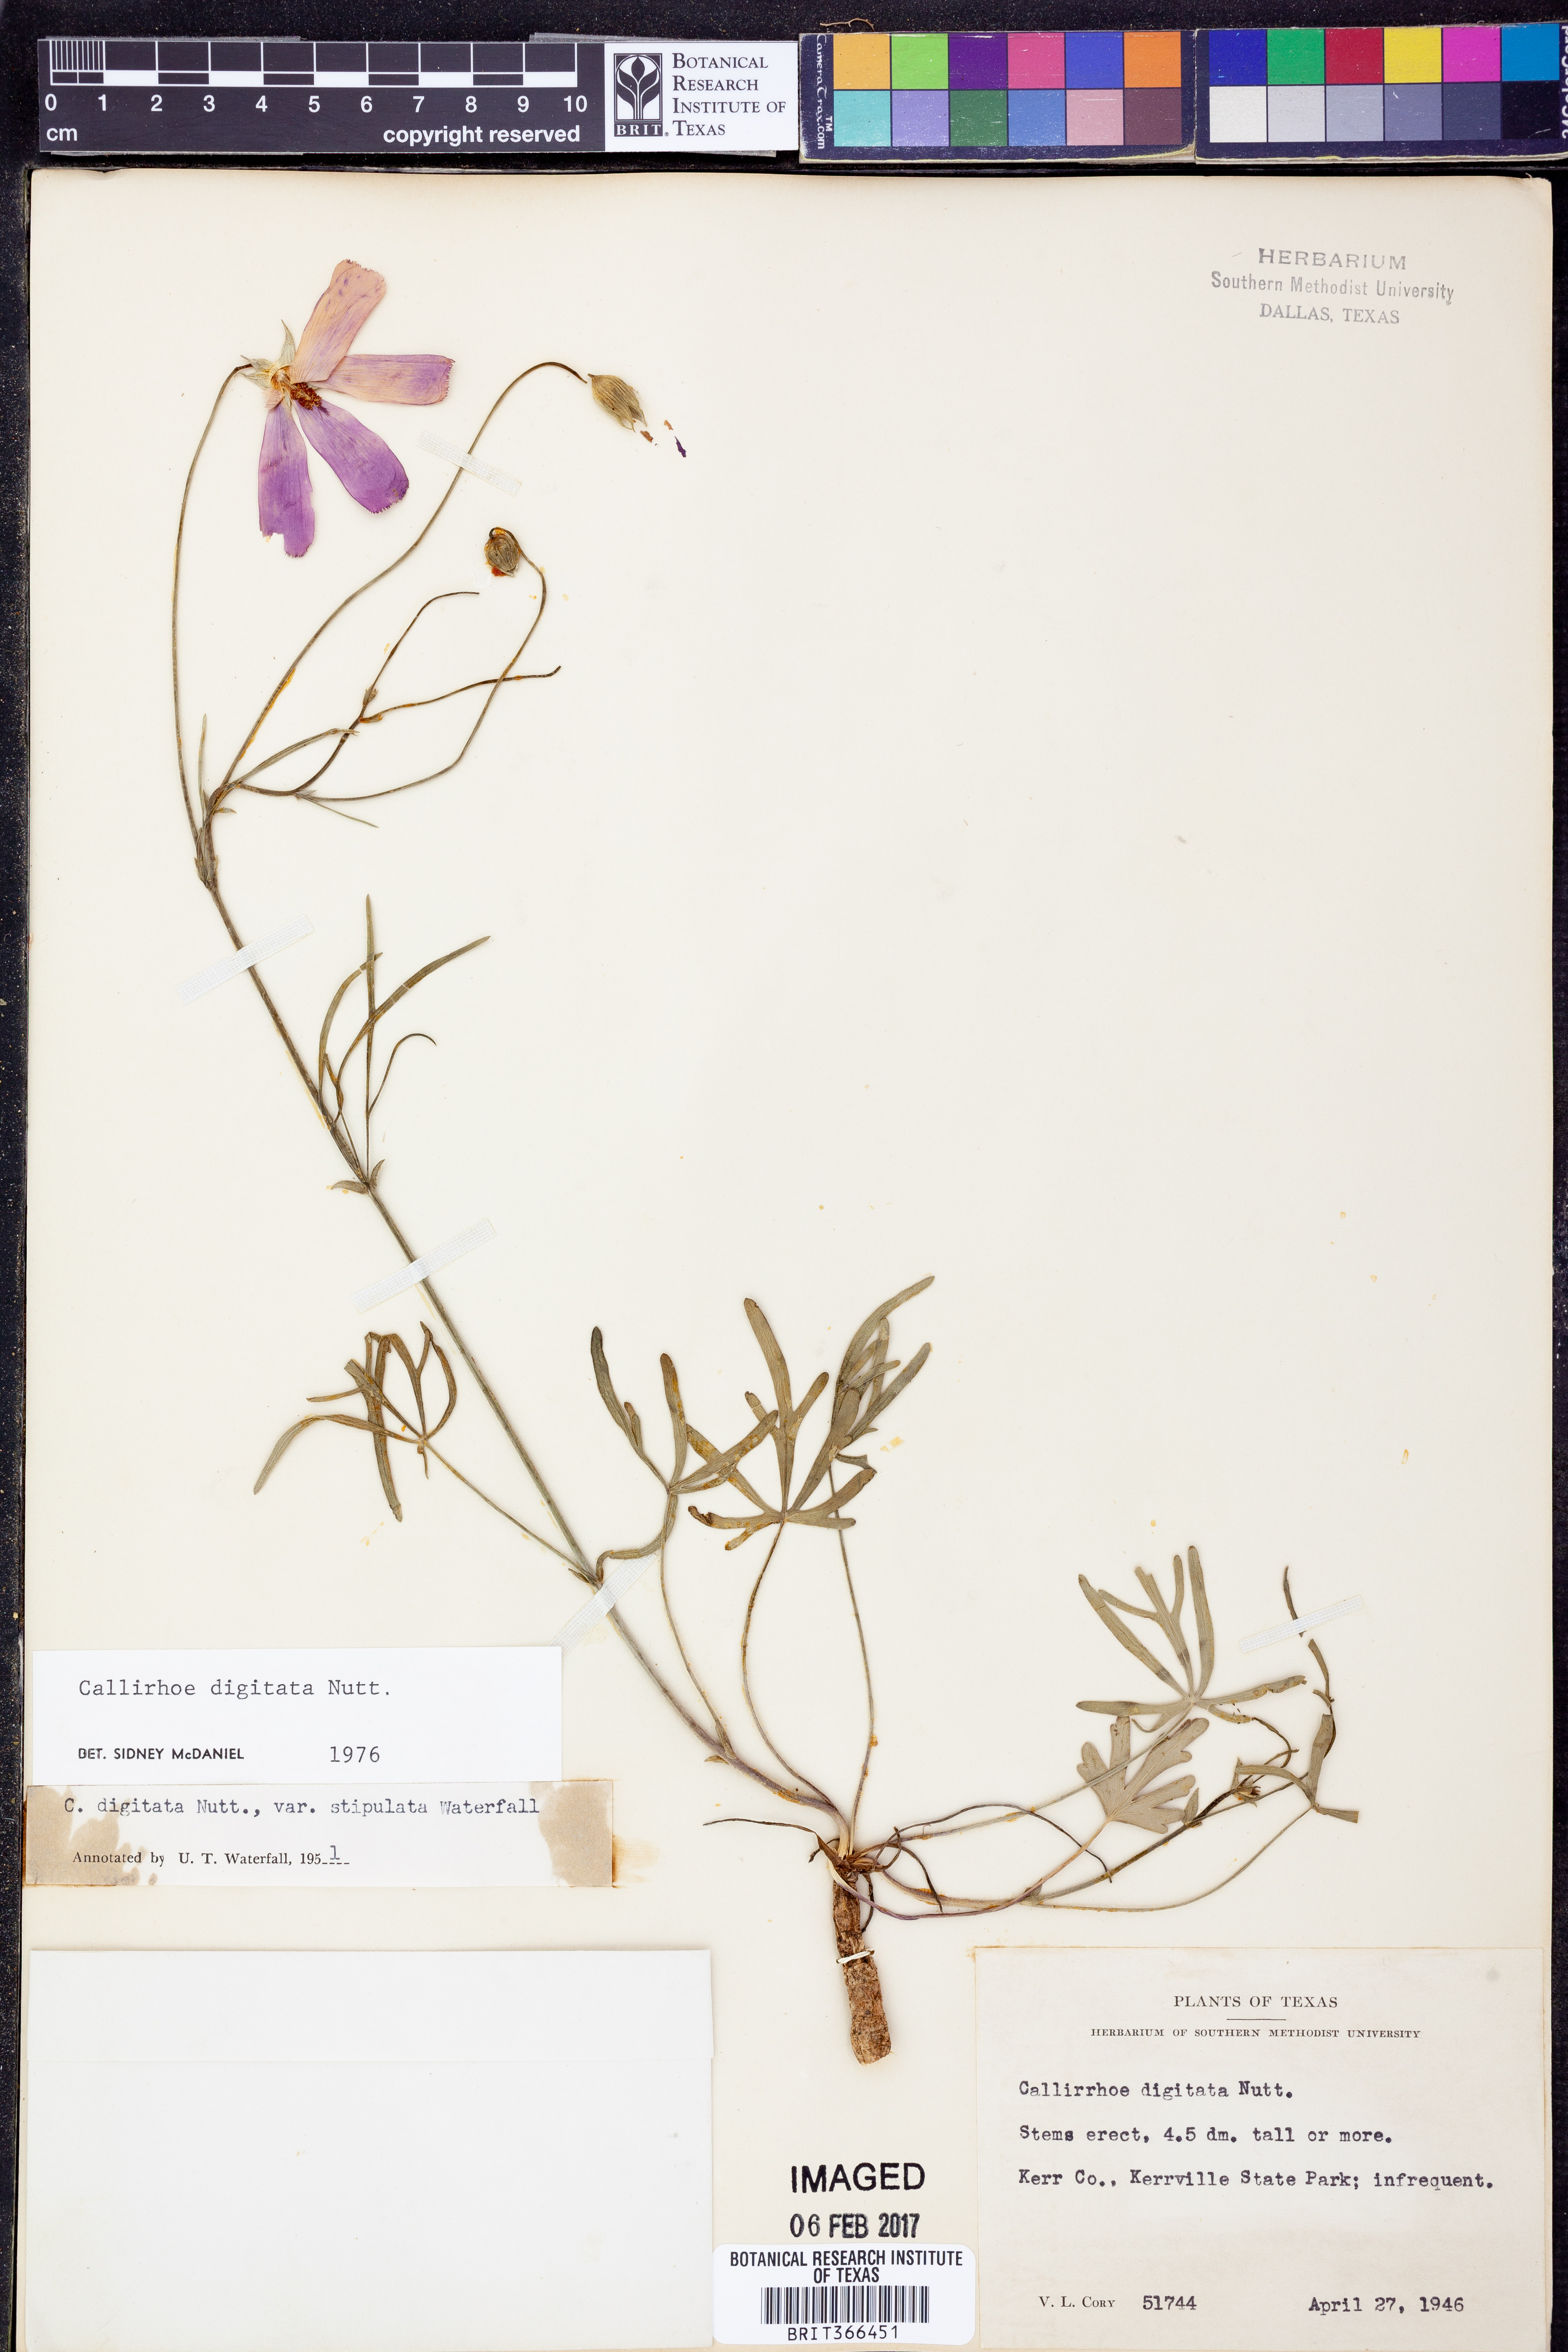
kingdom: Plantae
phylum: Tracheophyta
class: Magnoliopsida
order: Malvales
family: Malvaceae
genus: Callirhoe
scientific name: Callirhoe digitata
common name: Finger poppy-mallow
